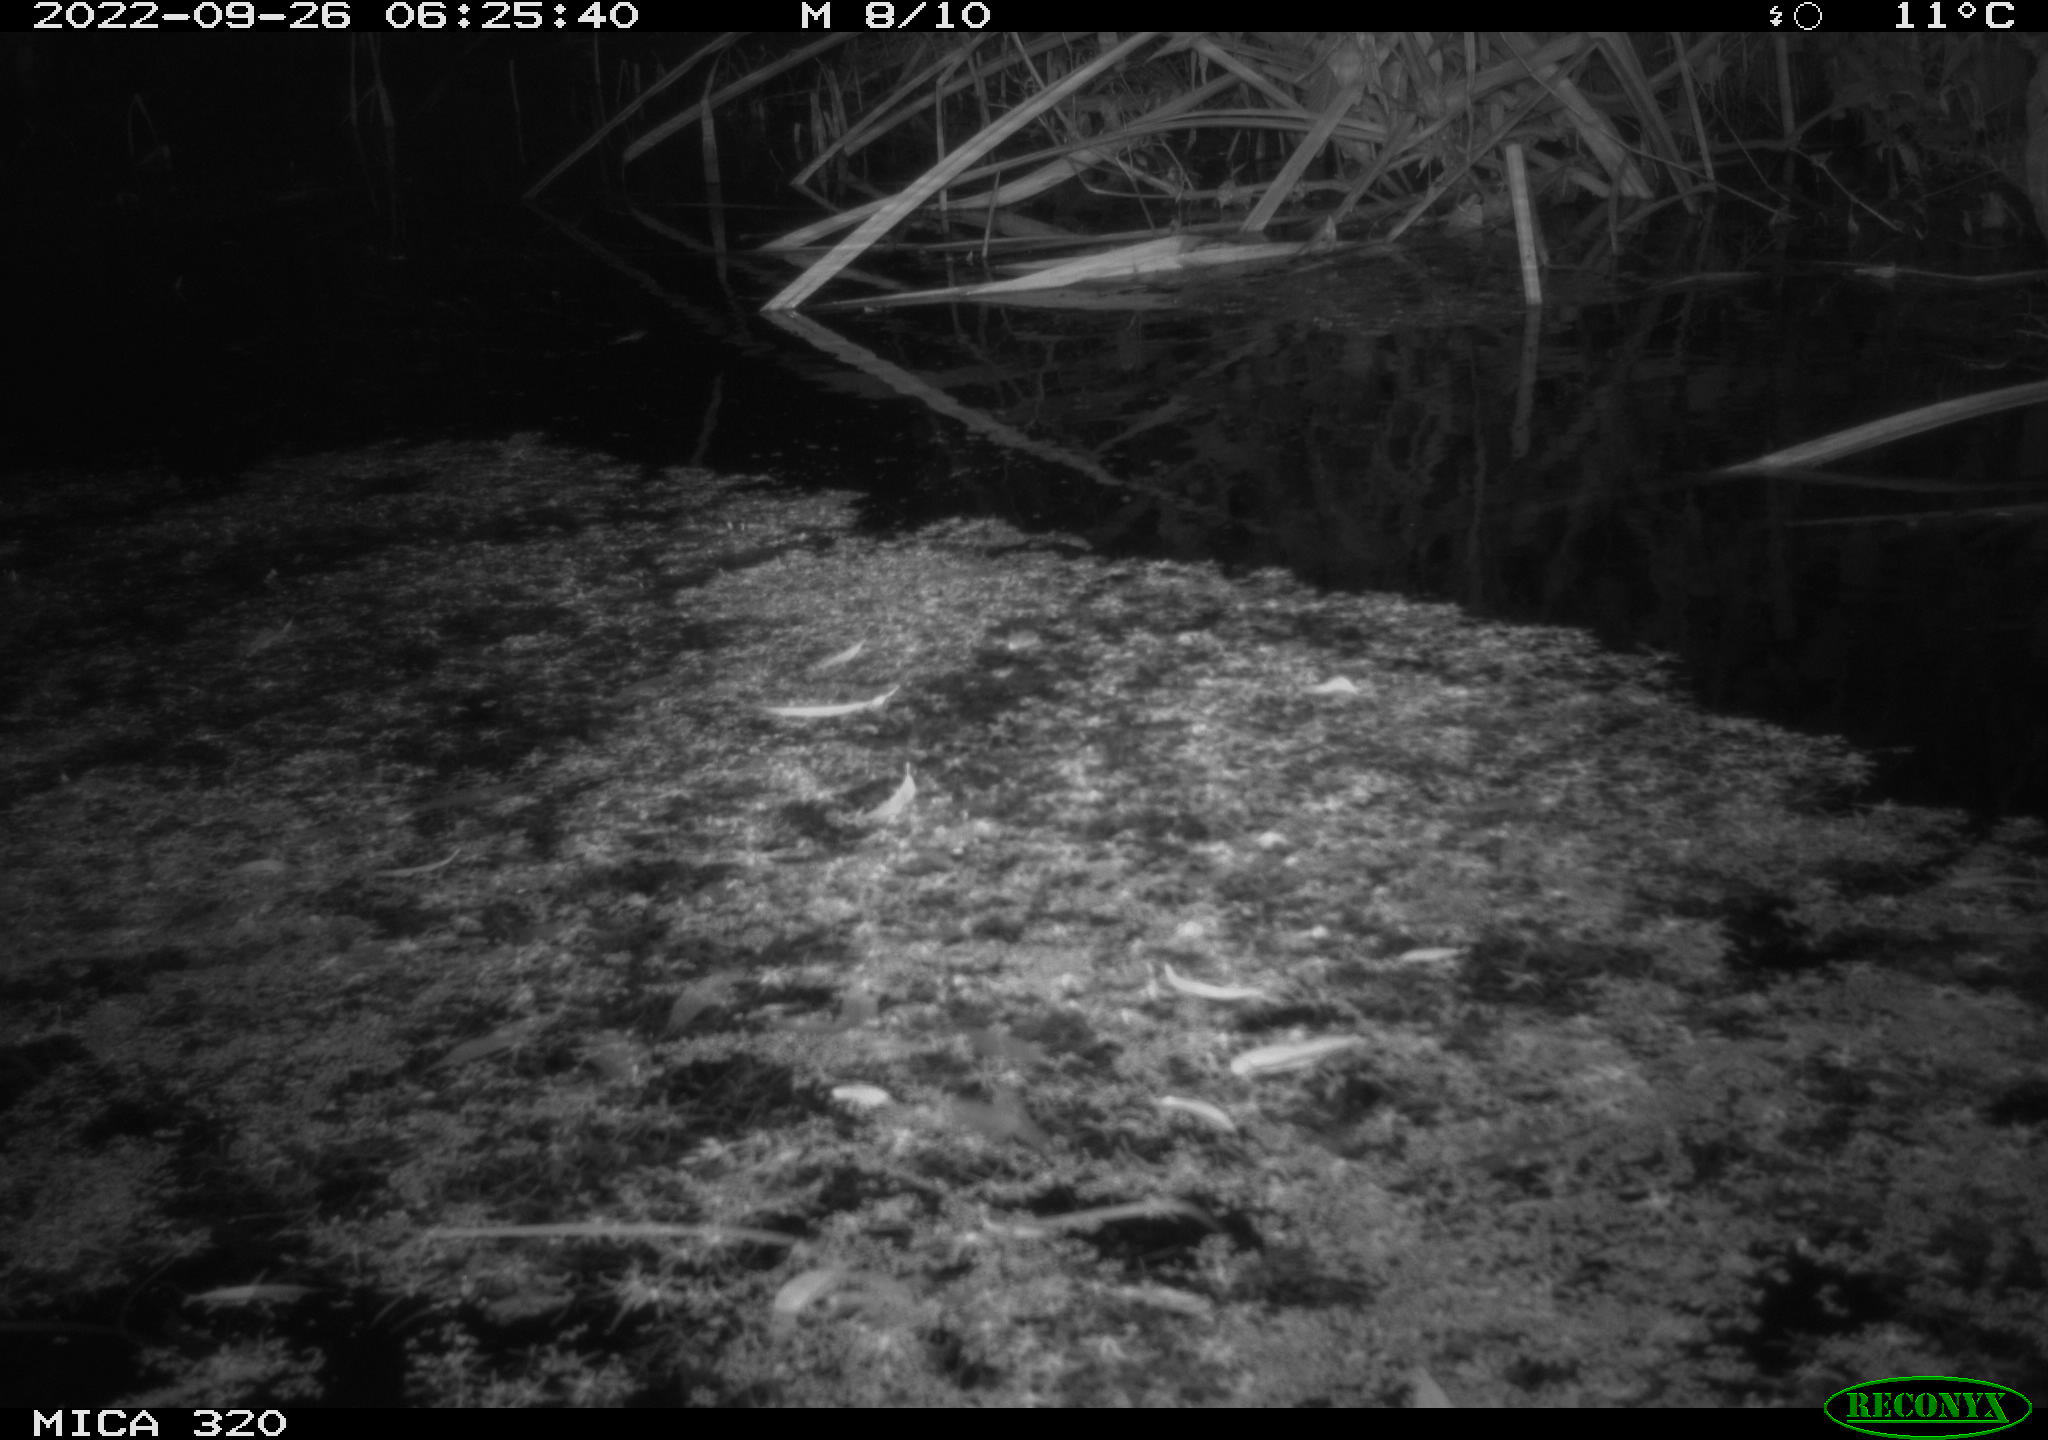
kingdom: Animalia
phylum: Chordata
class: Mammalia
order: Rodentia
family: Muridae
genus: Rattus
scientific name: Rattus norvegicus
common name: Brown rat
